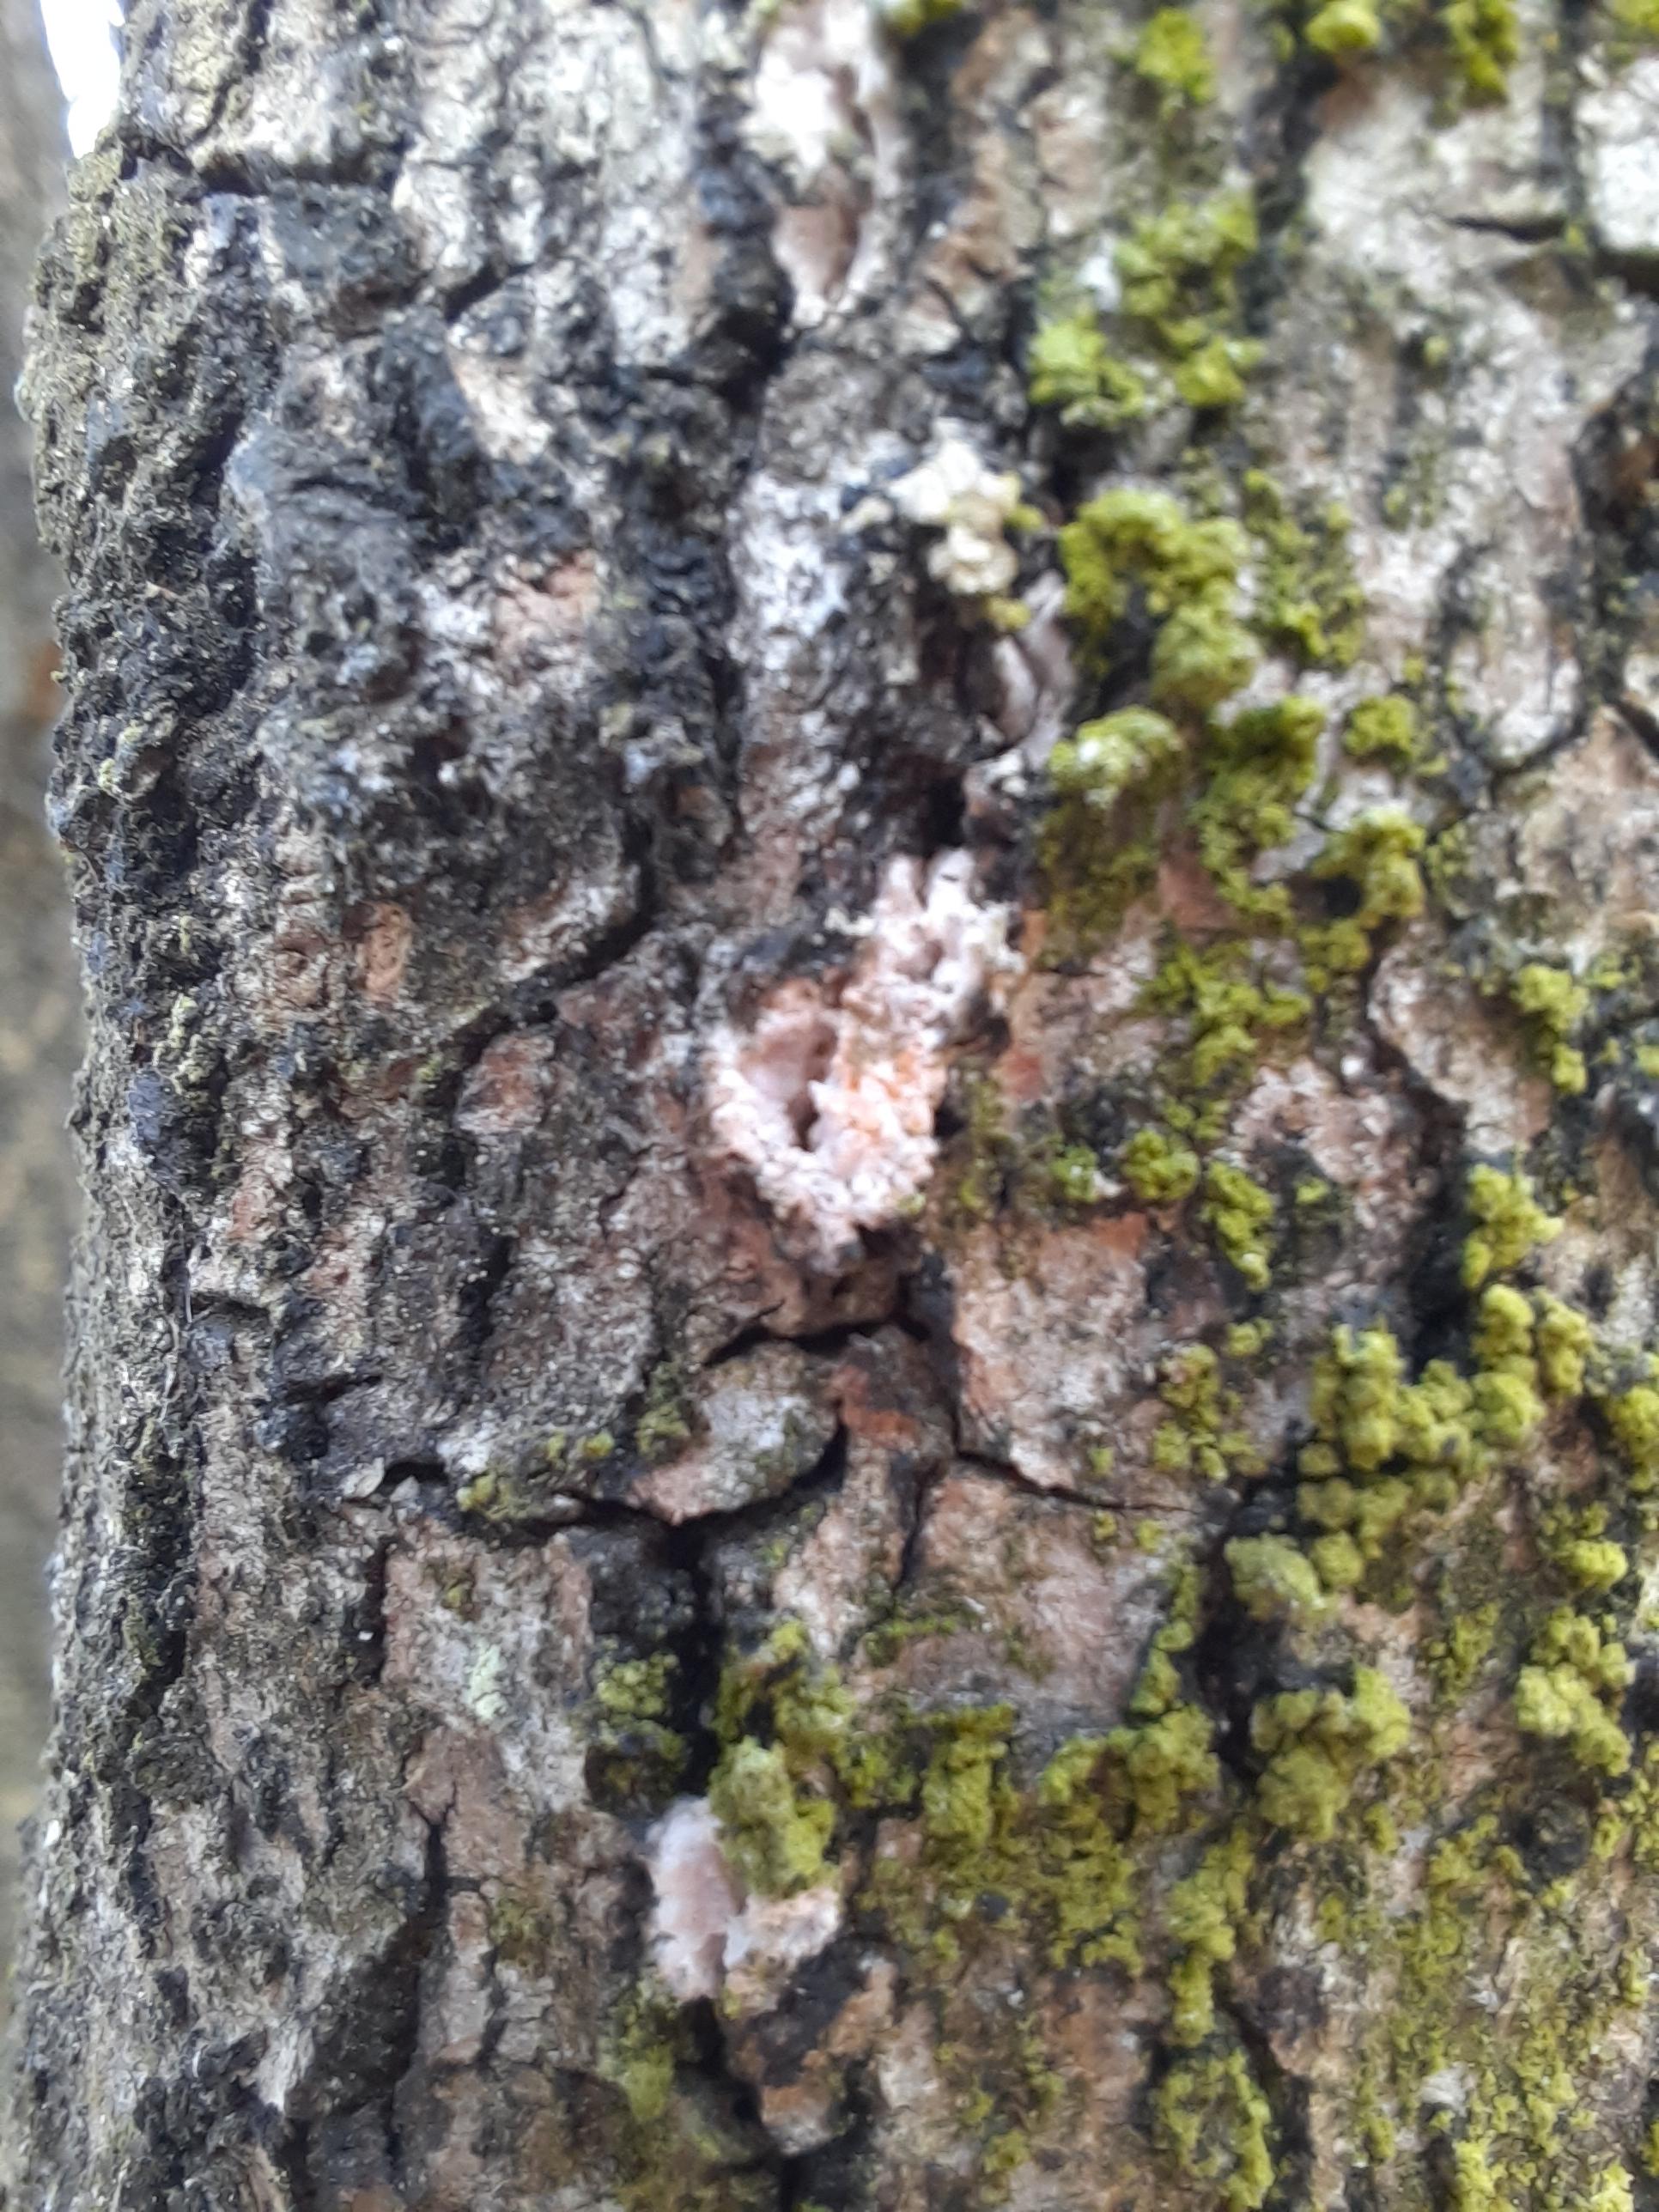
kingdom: Fungi
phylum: Basidiomycota
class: Agaricomycetes
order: Russulales
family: Peniophoraceae
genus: Peniophora
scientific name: Peniophora polygonia
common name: polygon-voksskind
